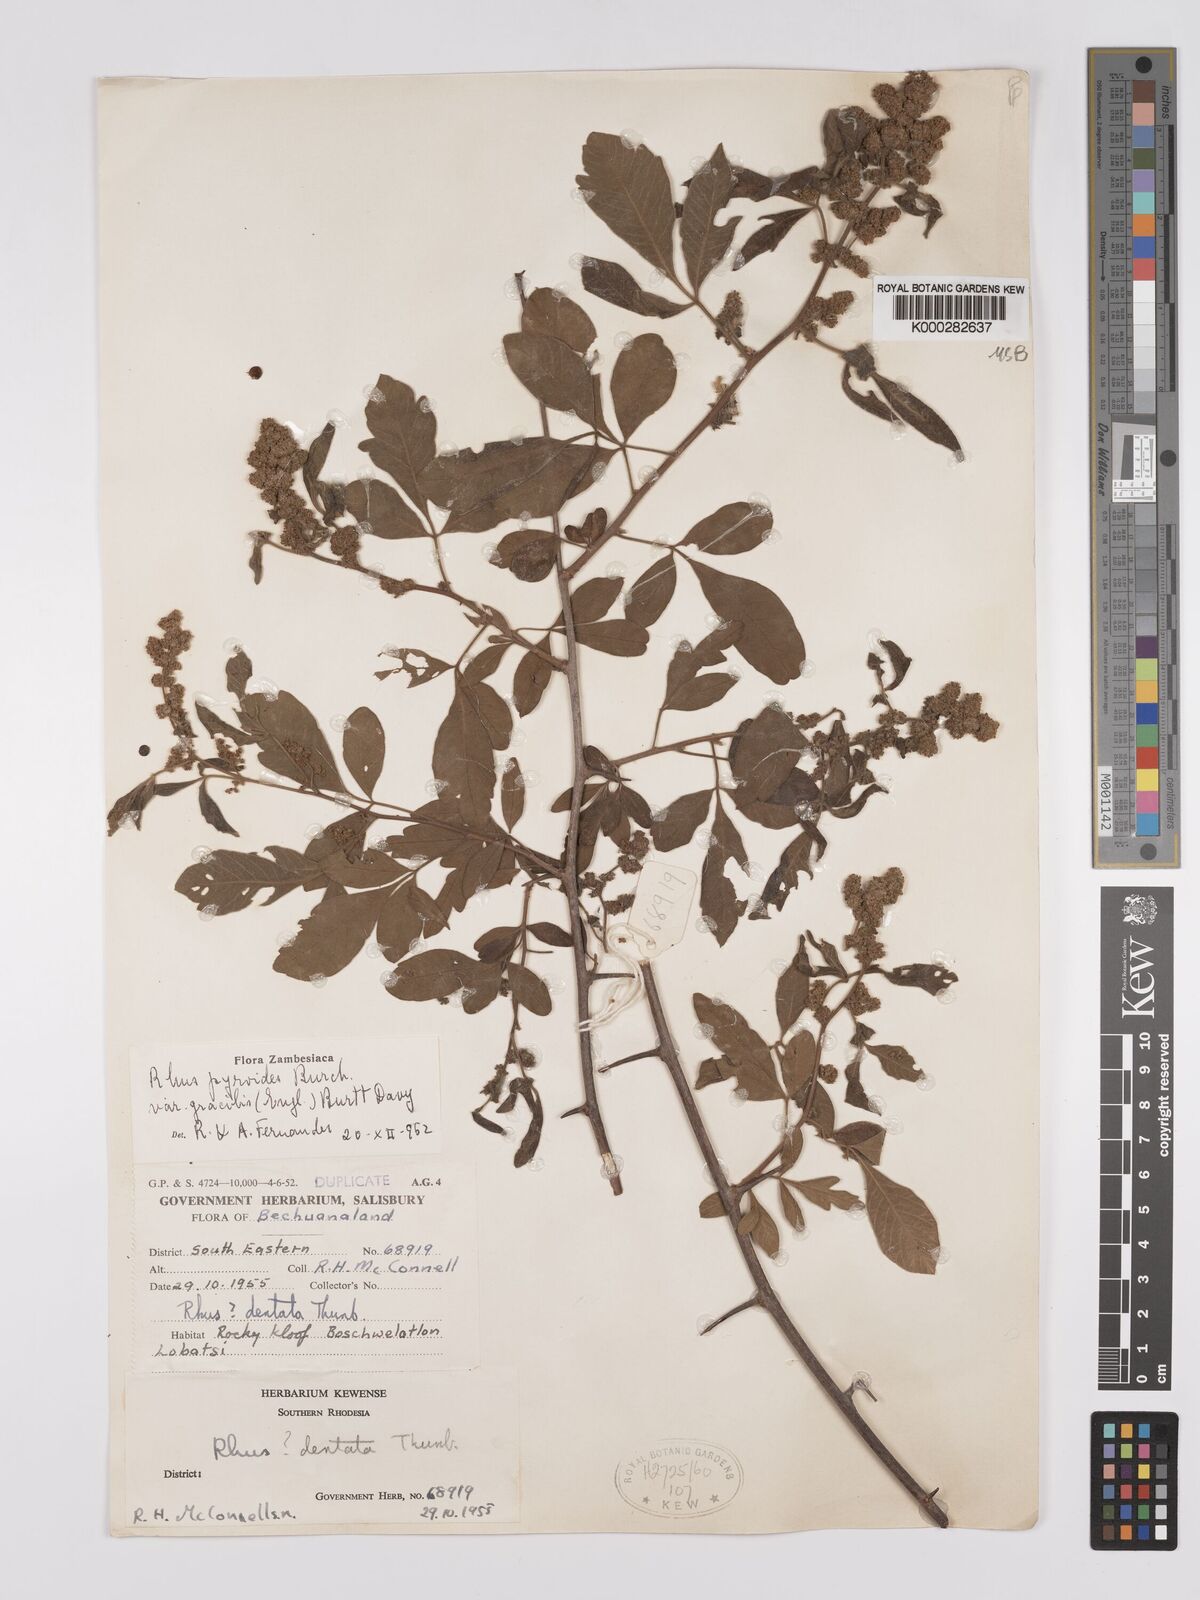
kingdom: Plantae
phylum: Tracheophyta
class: Magnoliopsida
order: Sapindales
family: Anacardiaceae
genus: Searsia
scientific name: Searsia pyroides
